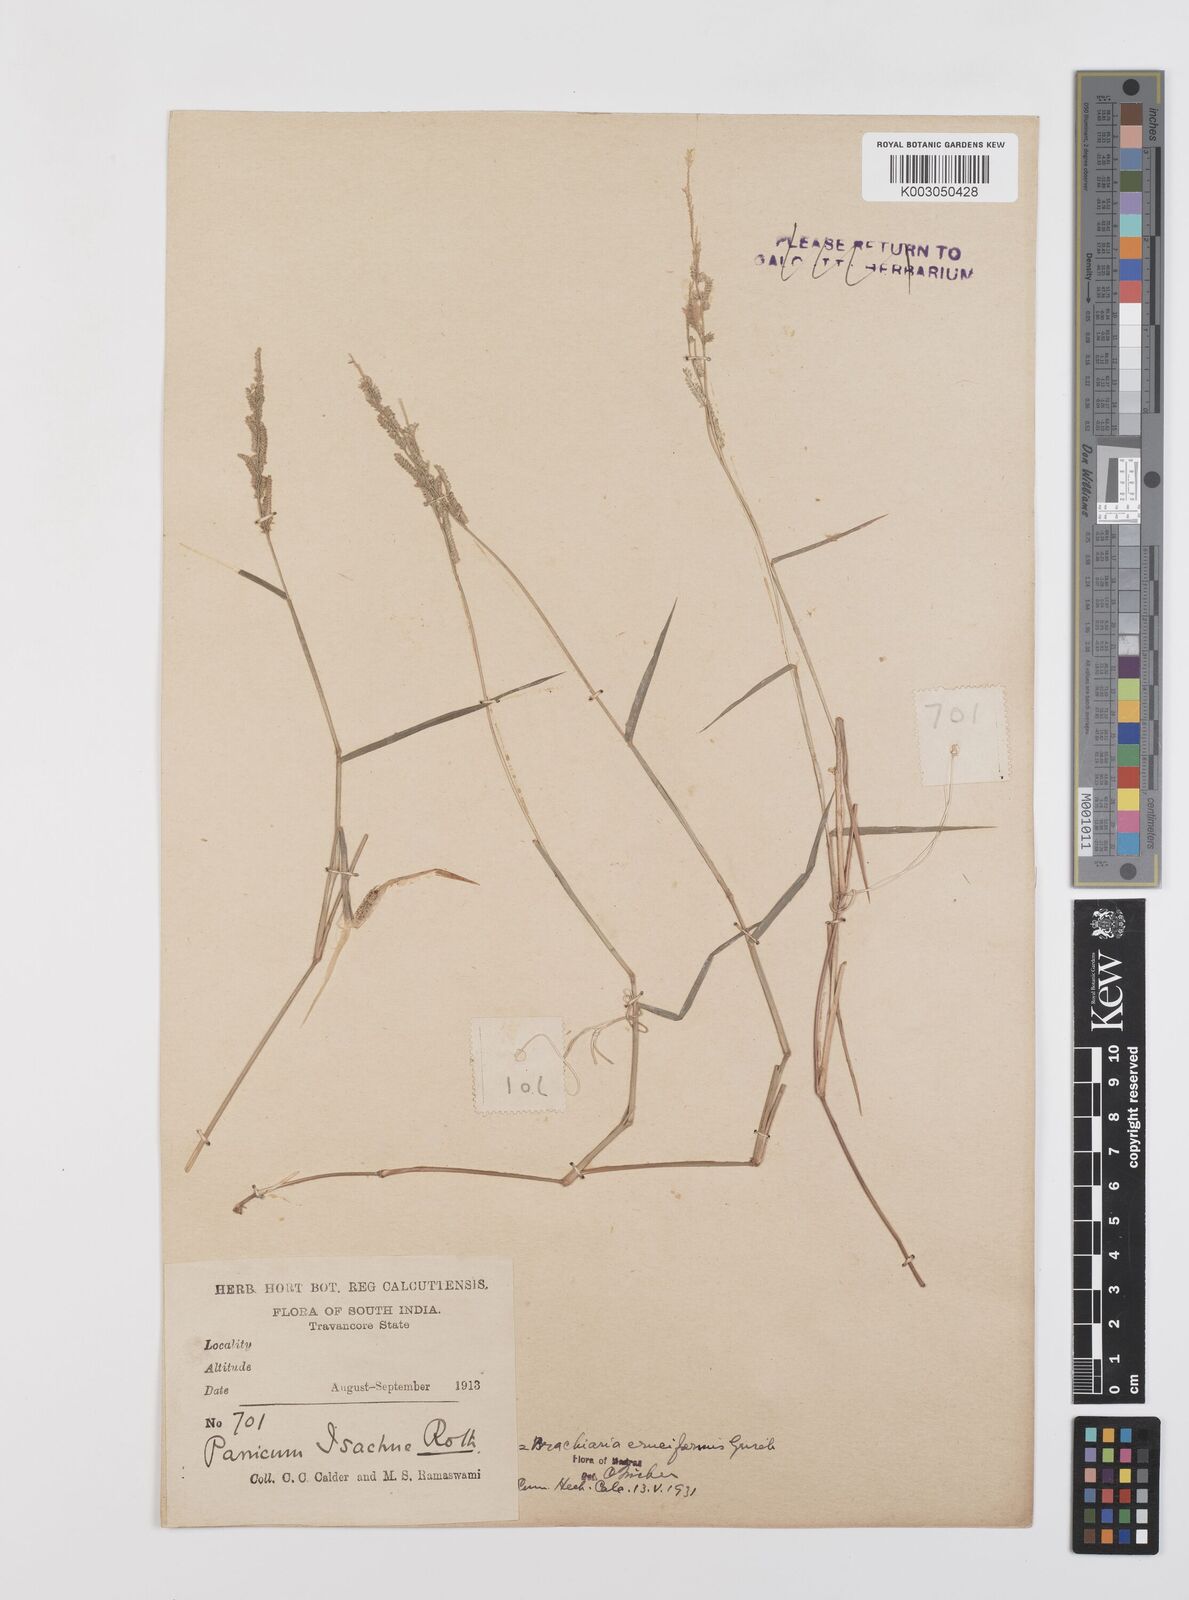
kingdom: Plantae
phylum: Tracheophyta
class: Liliopsida
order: Poales
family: Poaceae
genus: Moorochloa
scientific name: Moorochloa eruciformis
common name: Sweet signalgrass
